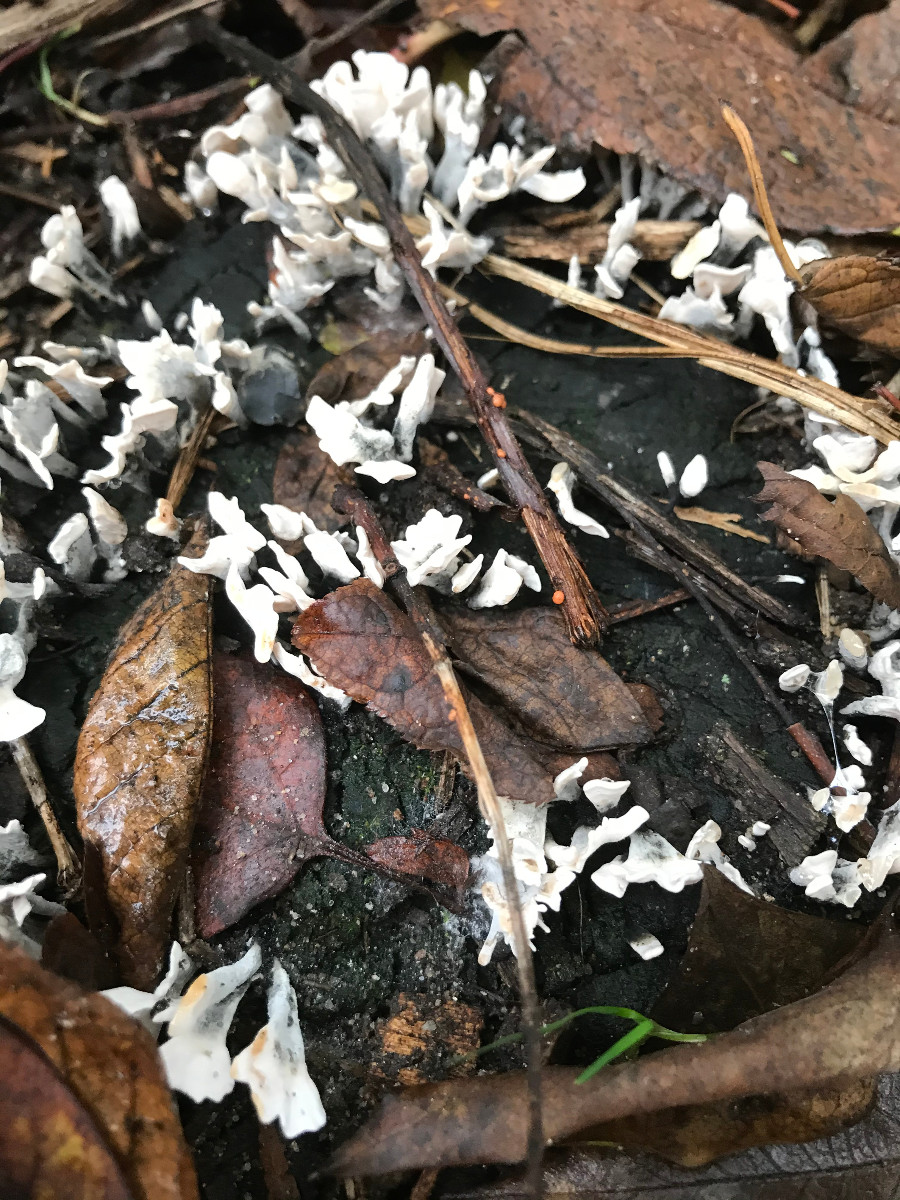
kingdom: Fungi
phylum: Ascomycota
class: Sordariomycetes
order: Xylariales
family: Xylariaceae
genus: Xylaria
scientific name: Xylaria hypoxylon
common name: grenet stødsvamp
